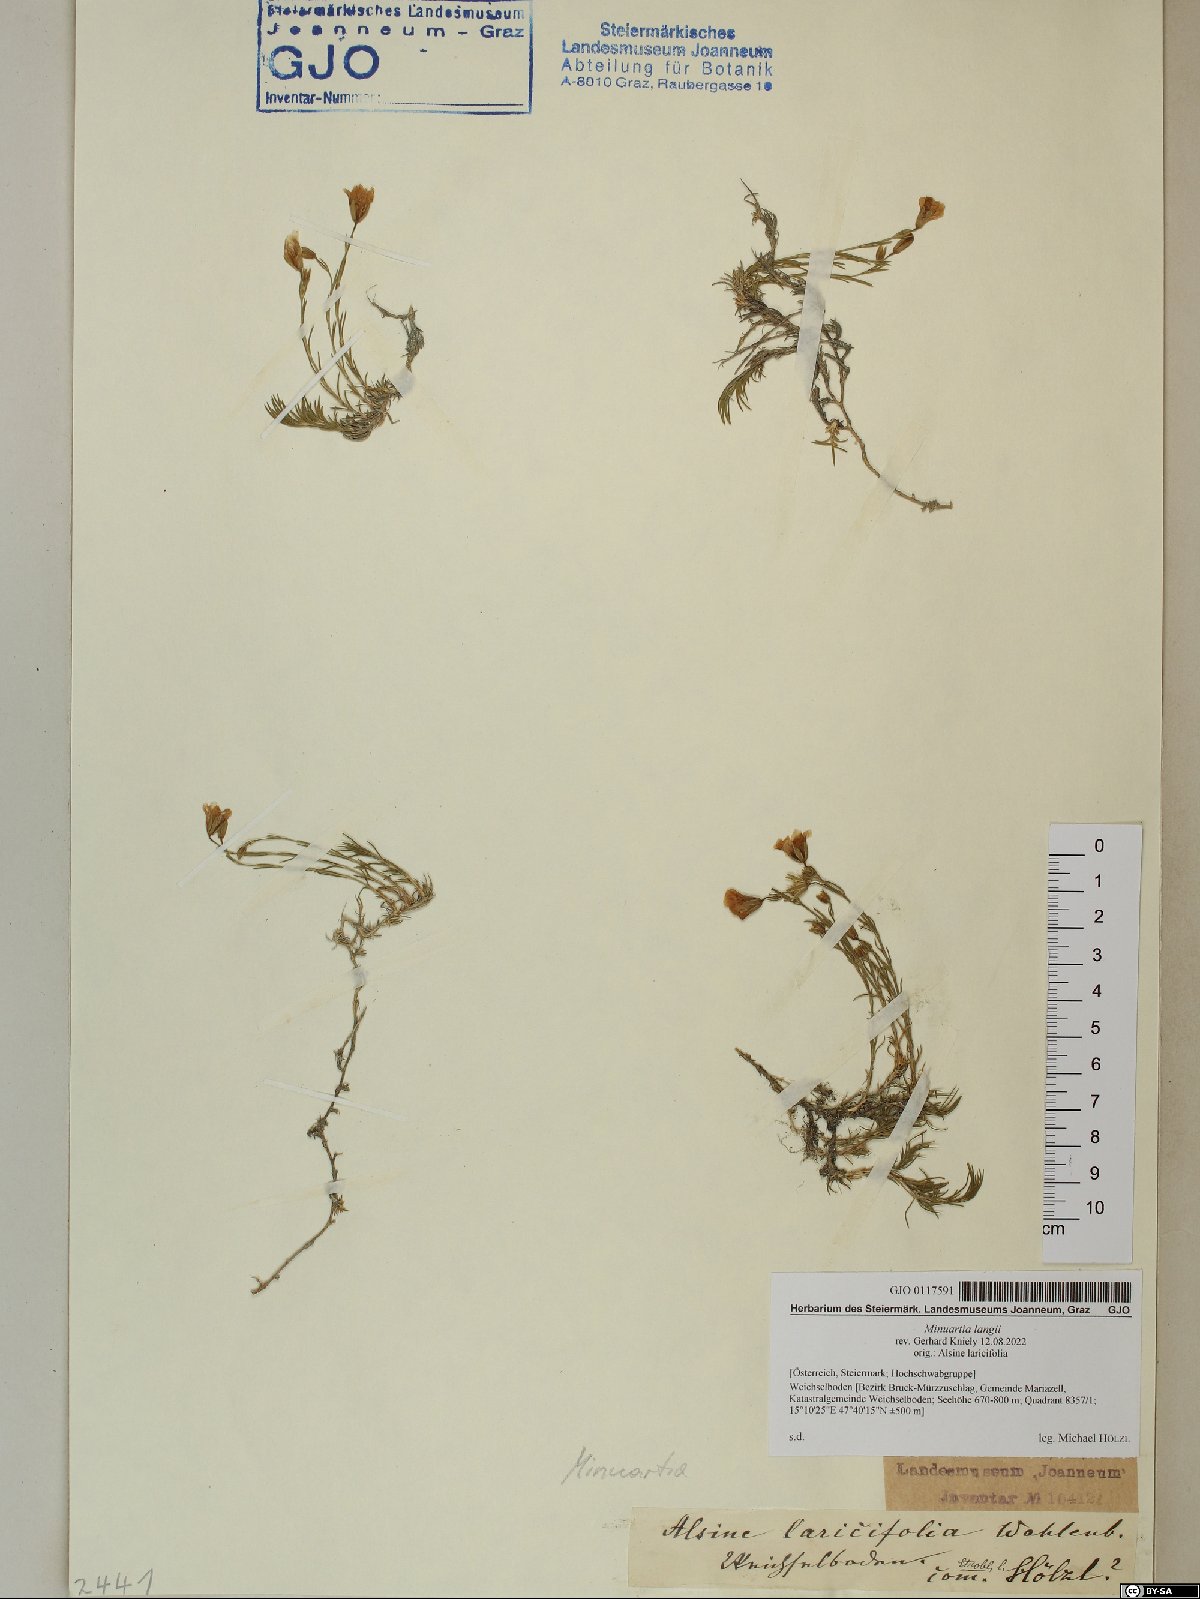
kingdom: Plantae
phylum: Tracheophyta
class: Magnoliopsida
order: Caryophyllales
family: Caryophyllaceae
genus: Cherleria
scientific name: Cherleria langii
